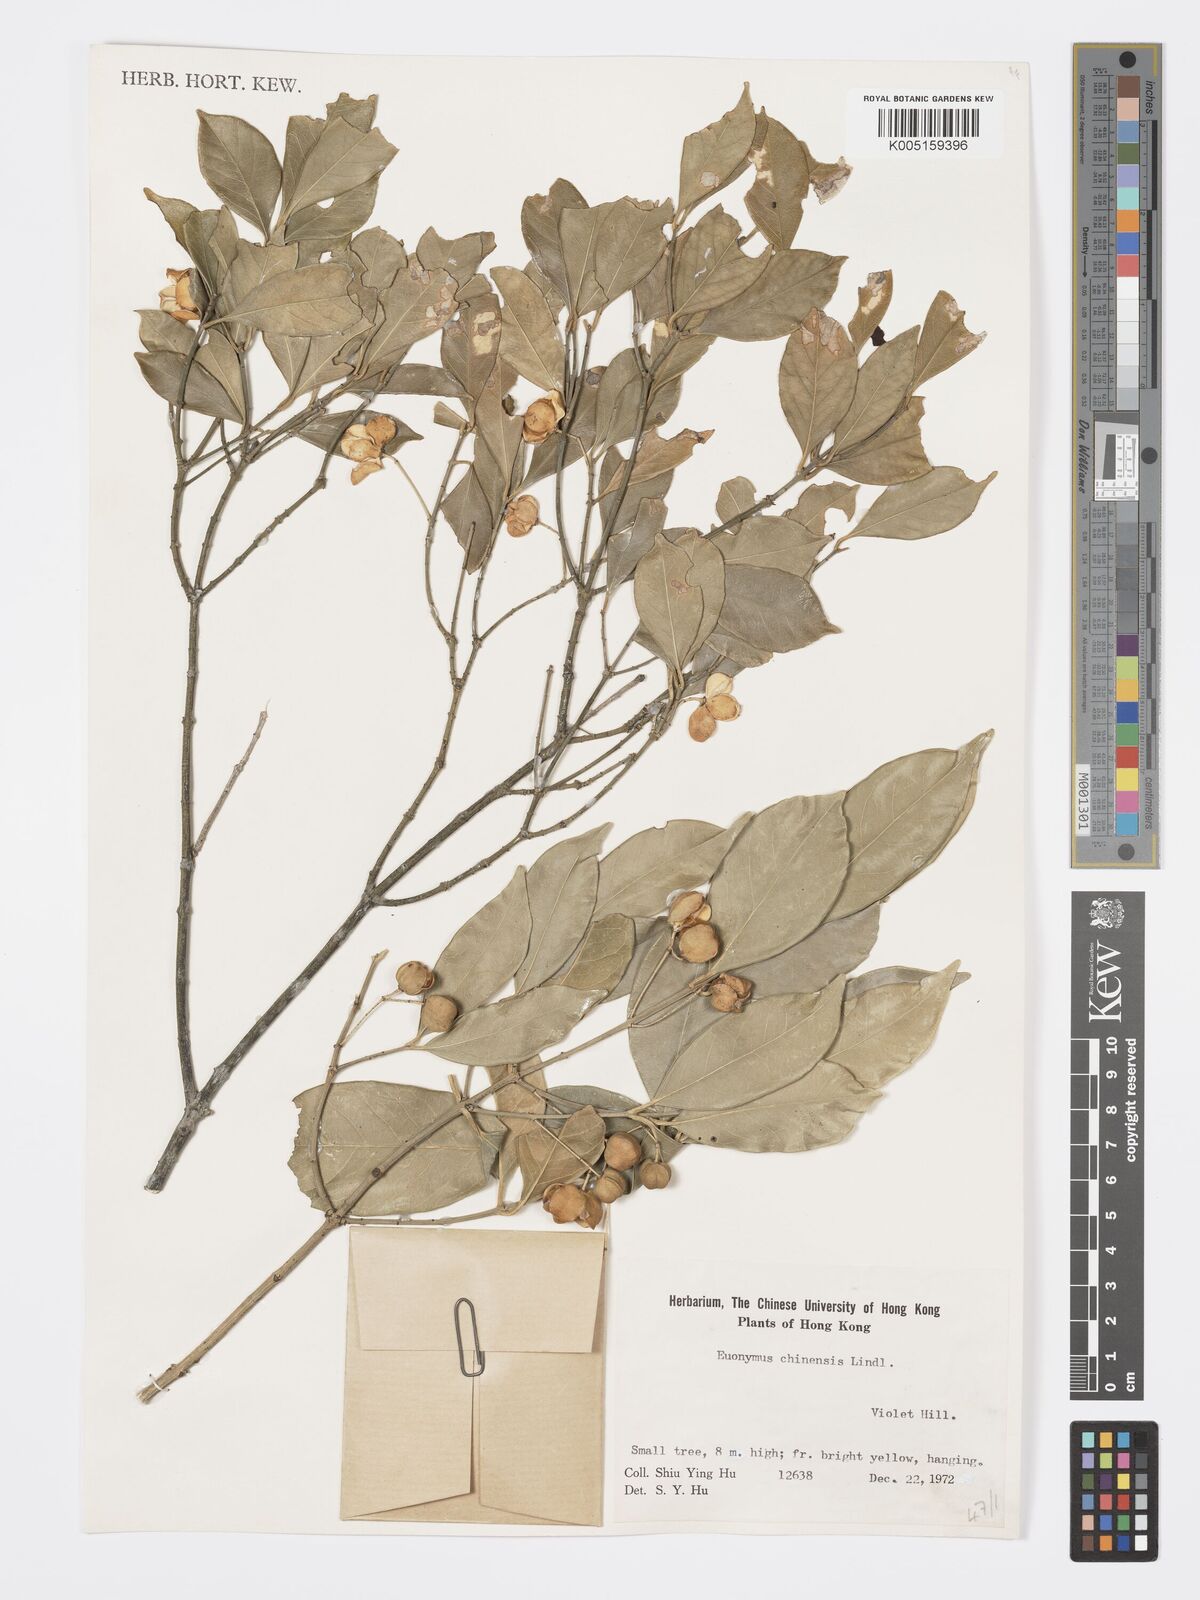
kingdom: Plantae
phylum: Tracheophyta
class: Magnoliopsida
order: Celastrales
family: Celastraceae
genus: Euonymus
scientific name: Euonymus nitidus
